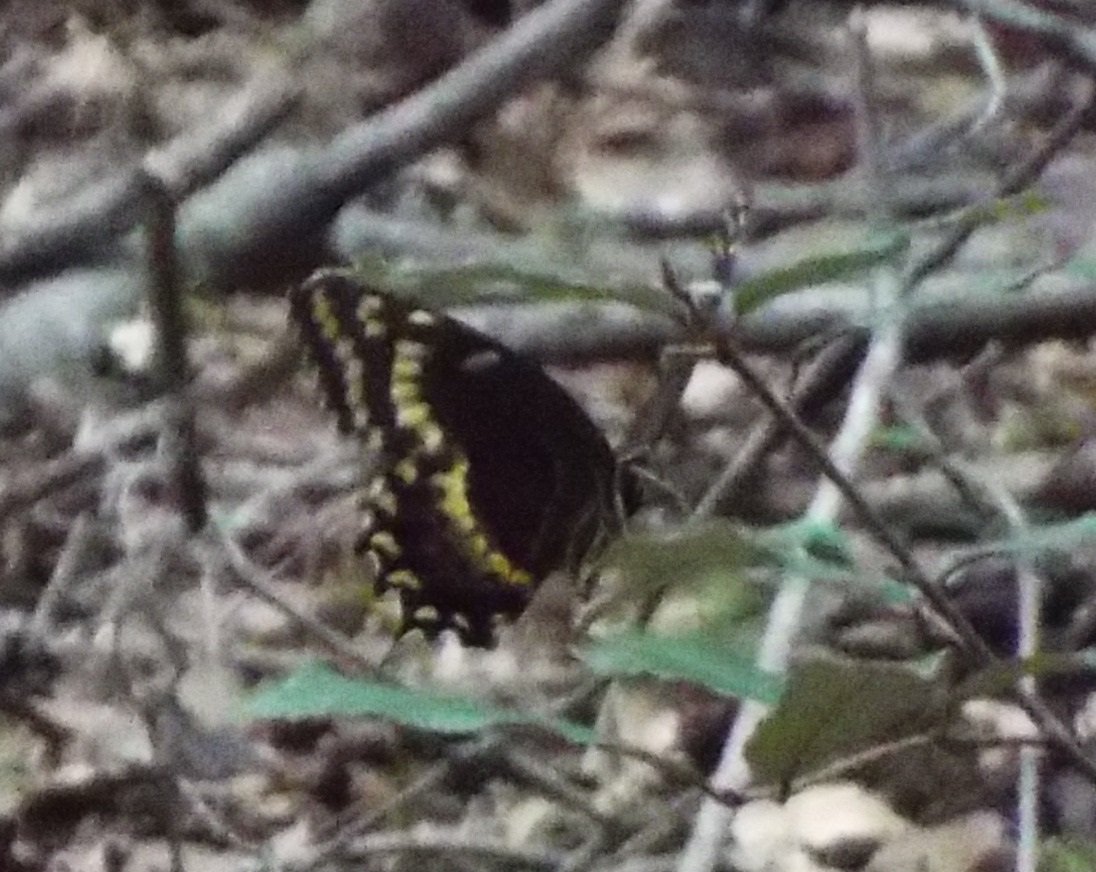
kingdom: Animalia
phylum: Arthropoda
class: Insecta
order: Lepidoptera
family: Papilionidae
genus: Pterourus
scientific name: Pterourus palamedes
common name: Palamedes Swallowtail
